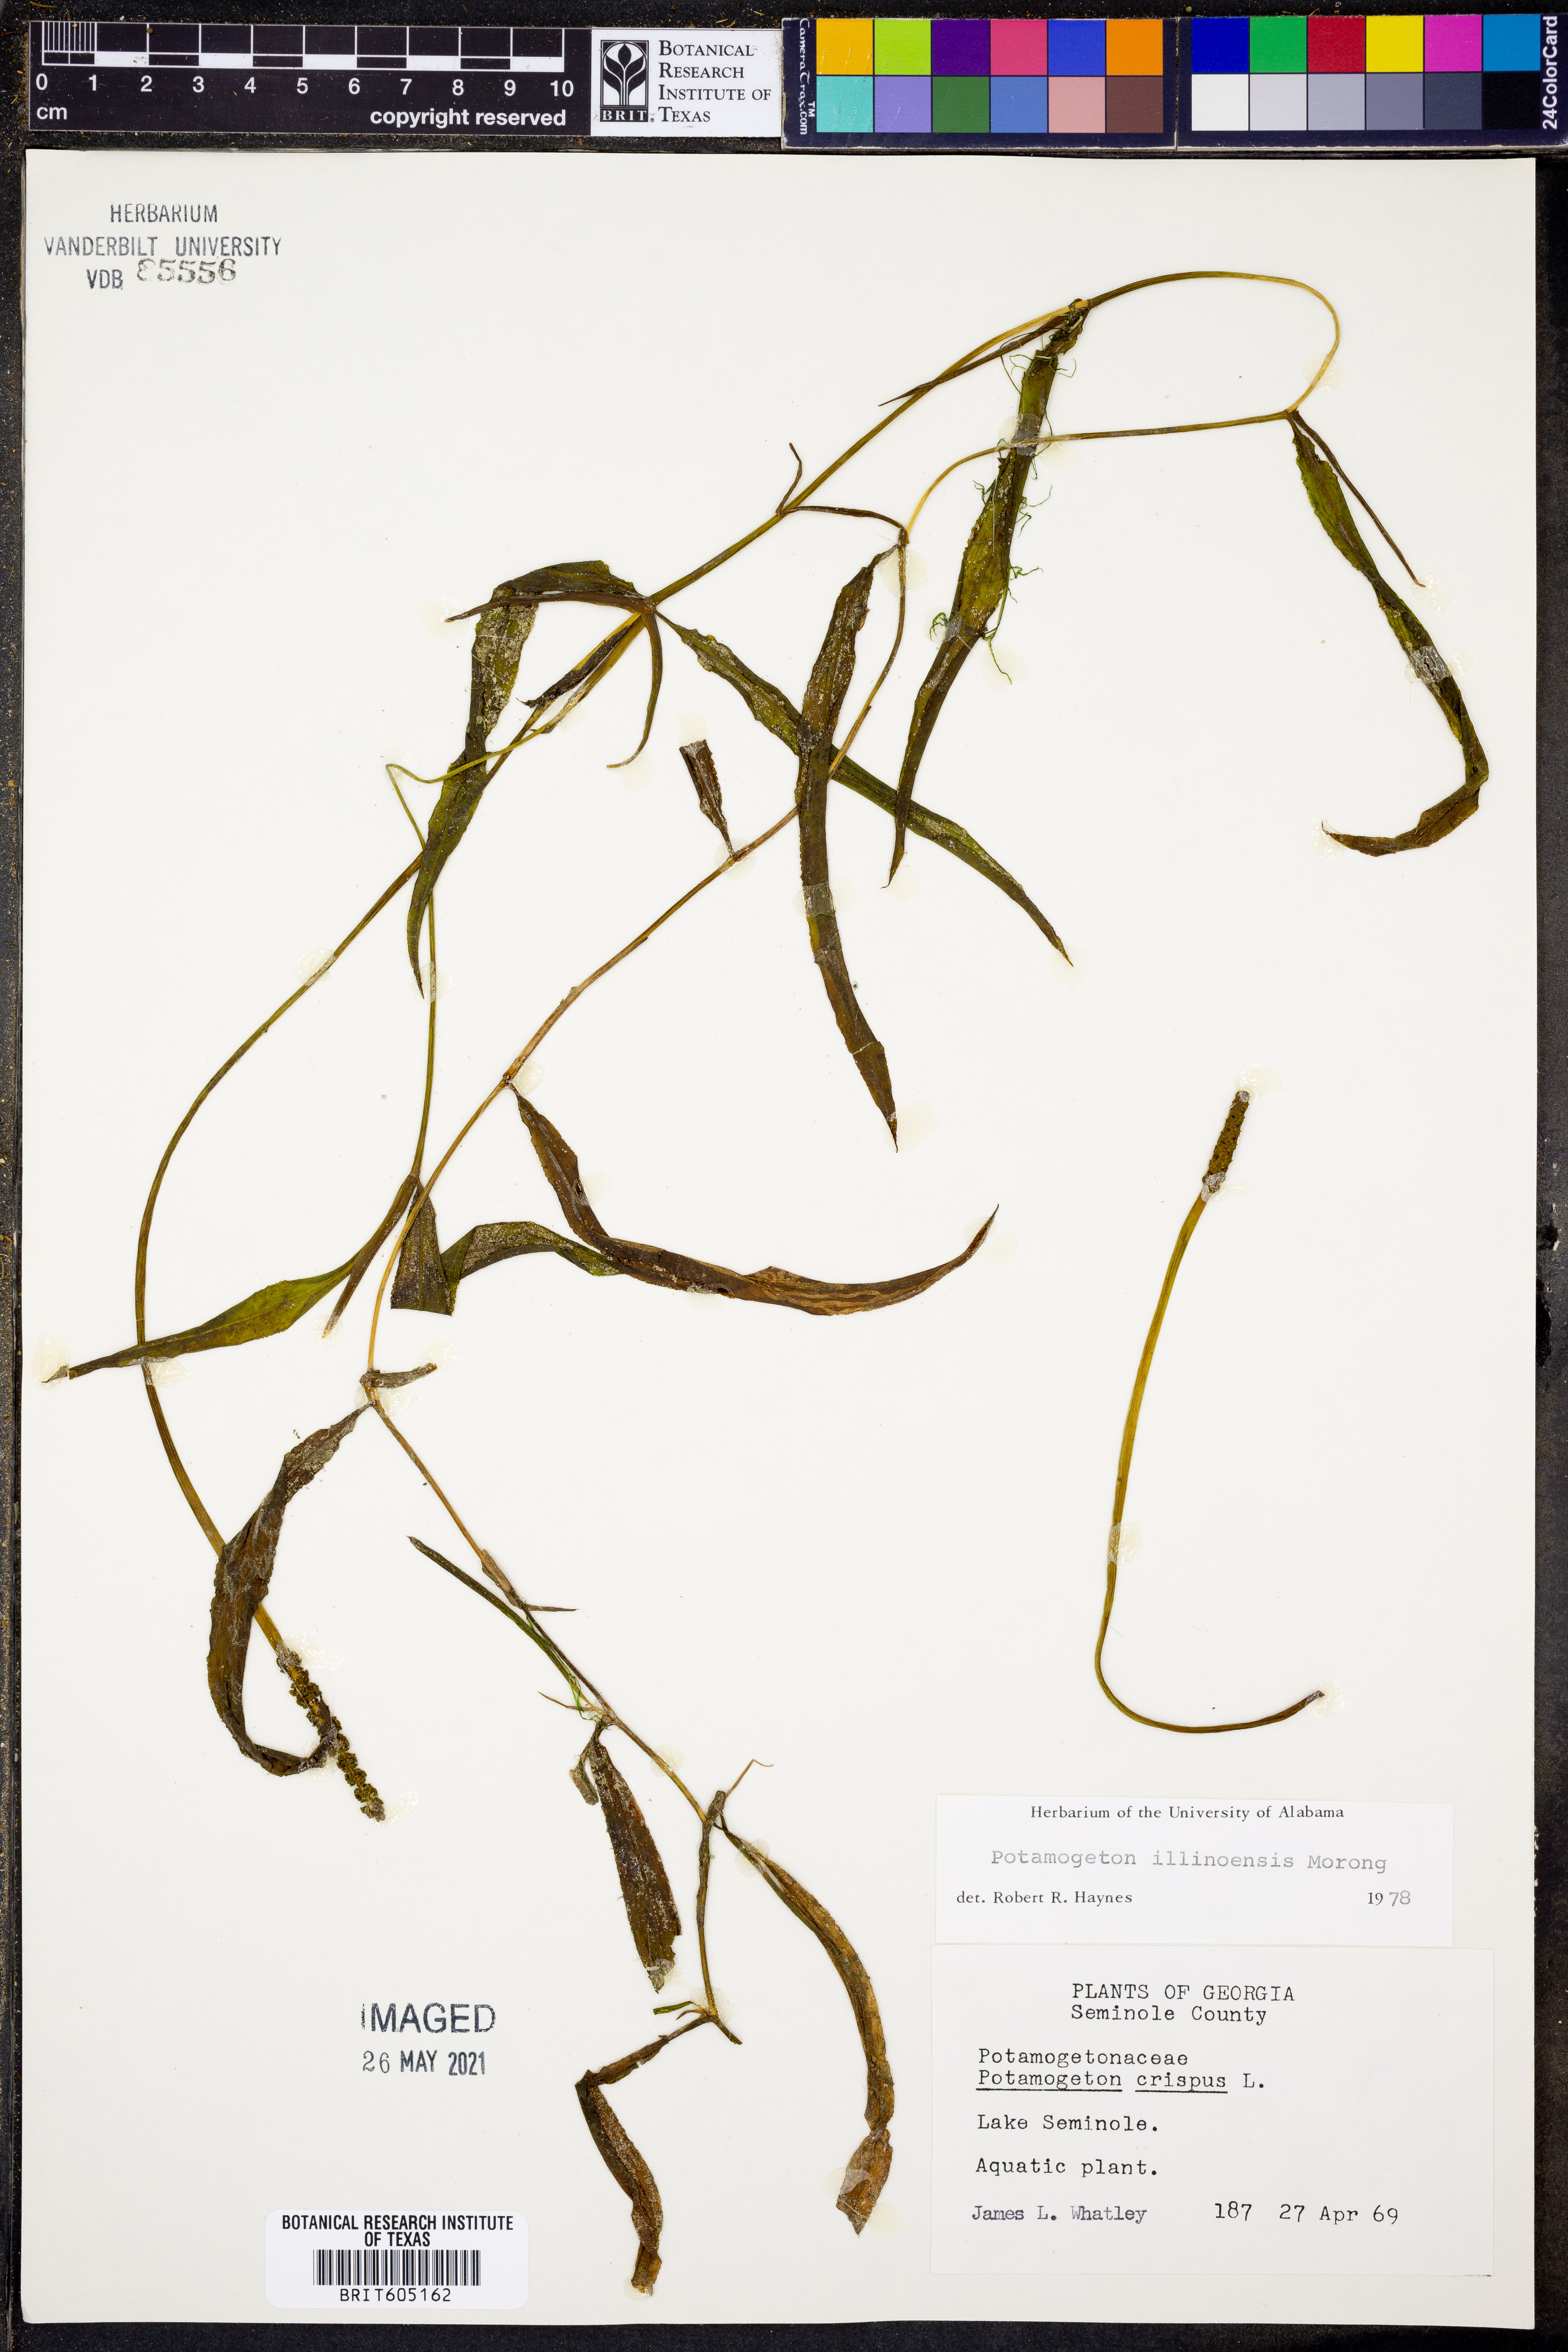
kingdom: Plantae
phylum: Tracheophyta
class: Liliopsida
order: Alismatales
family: Potamogetonaceae
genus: Potamogeton
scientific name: Potamogeton crispus
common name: Curled pondweed
